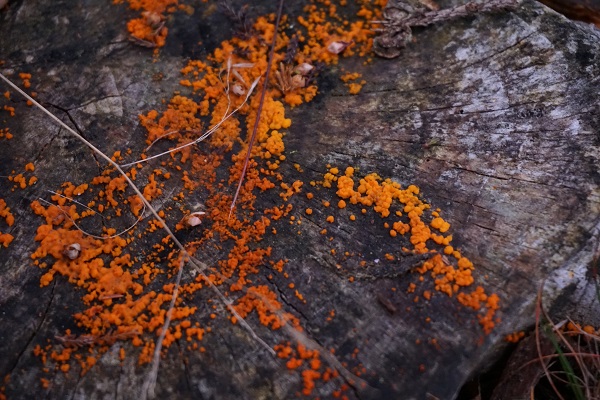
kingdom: Fungi
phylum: Basidiomycota
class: Dacrymycetes
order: Dacrymycetales
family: Dacrymycetaceae
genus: Dacrymyces
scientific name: Dacrymyces stillatus
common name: almindelig tåresvamp
